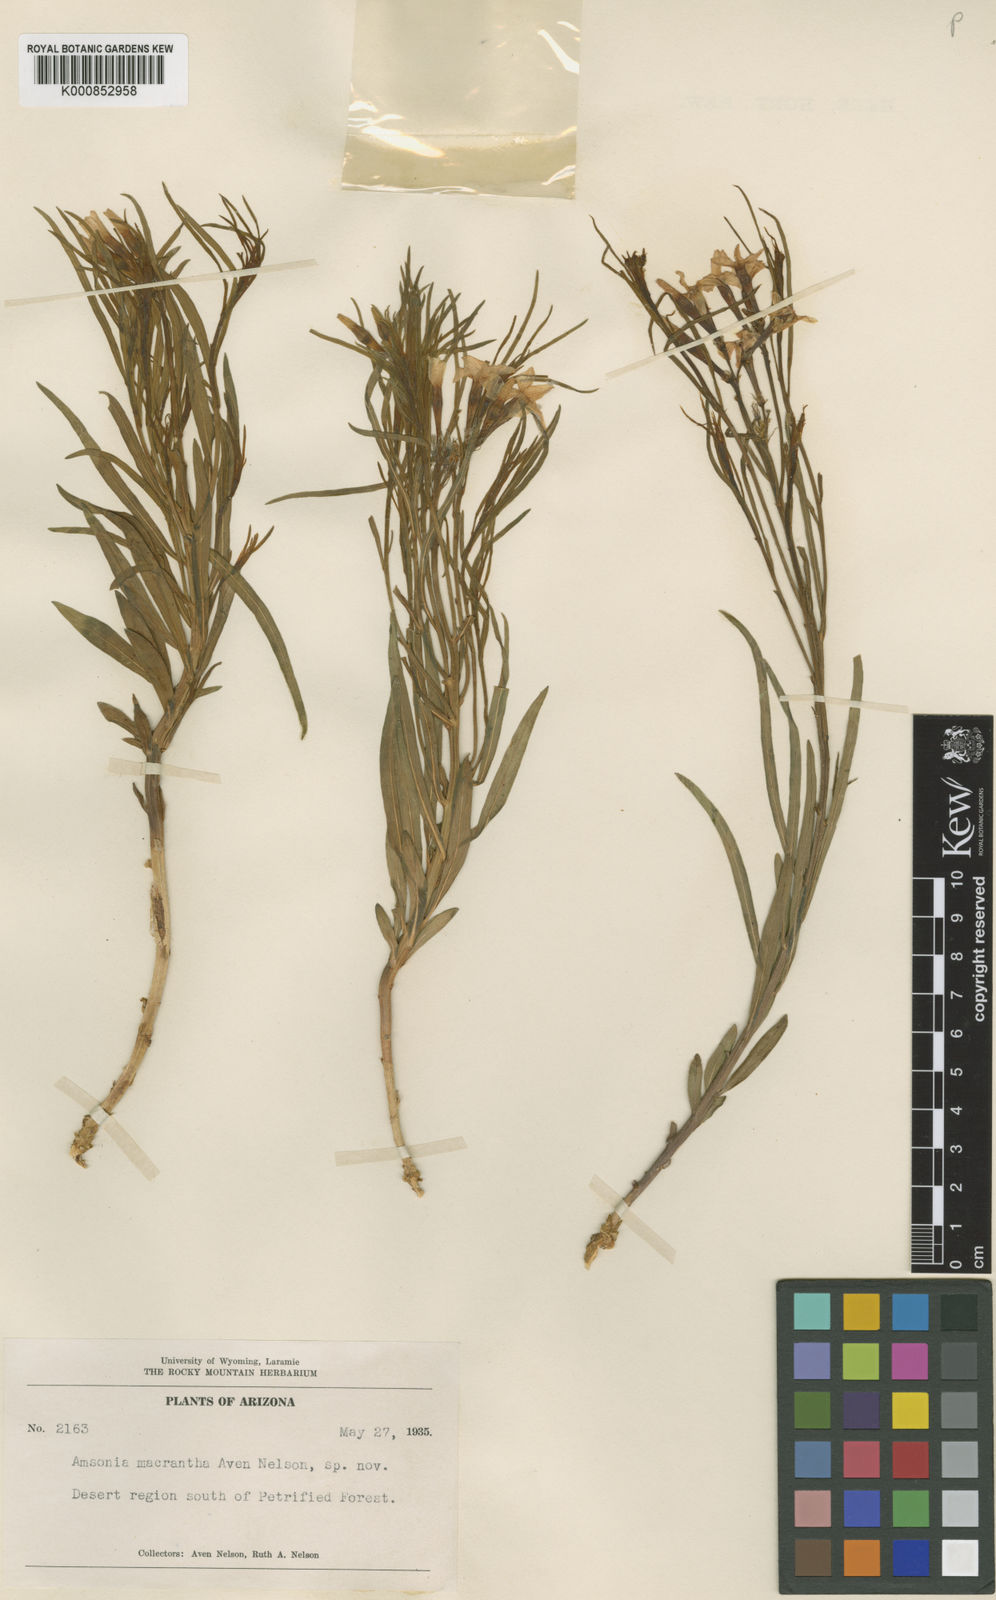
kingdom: Plantae
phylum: Tracheophyta
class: Magnoliopsida
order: Gentianales
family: Apocynaceae
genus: Amsonia
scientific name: Amsonia
